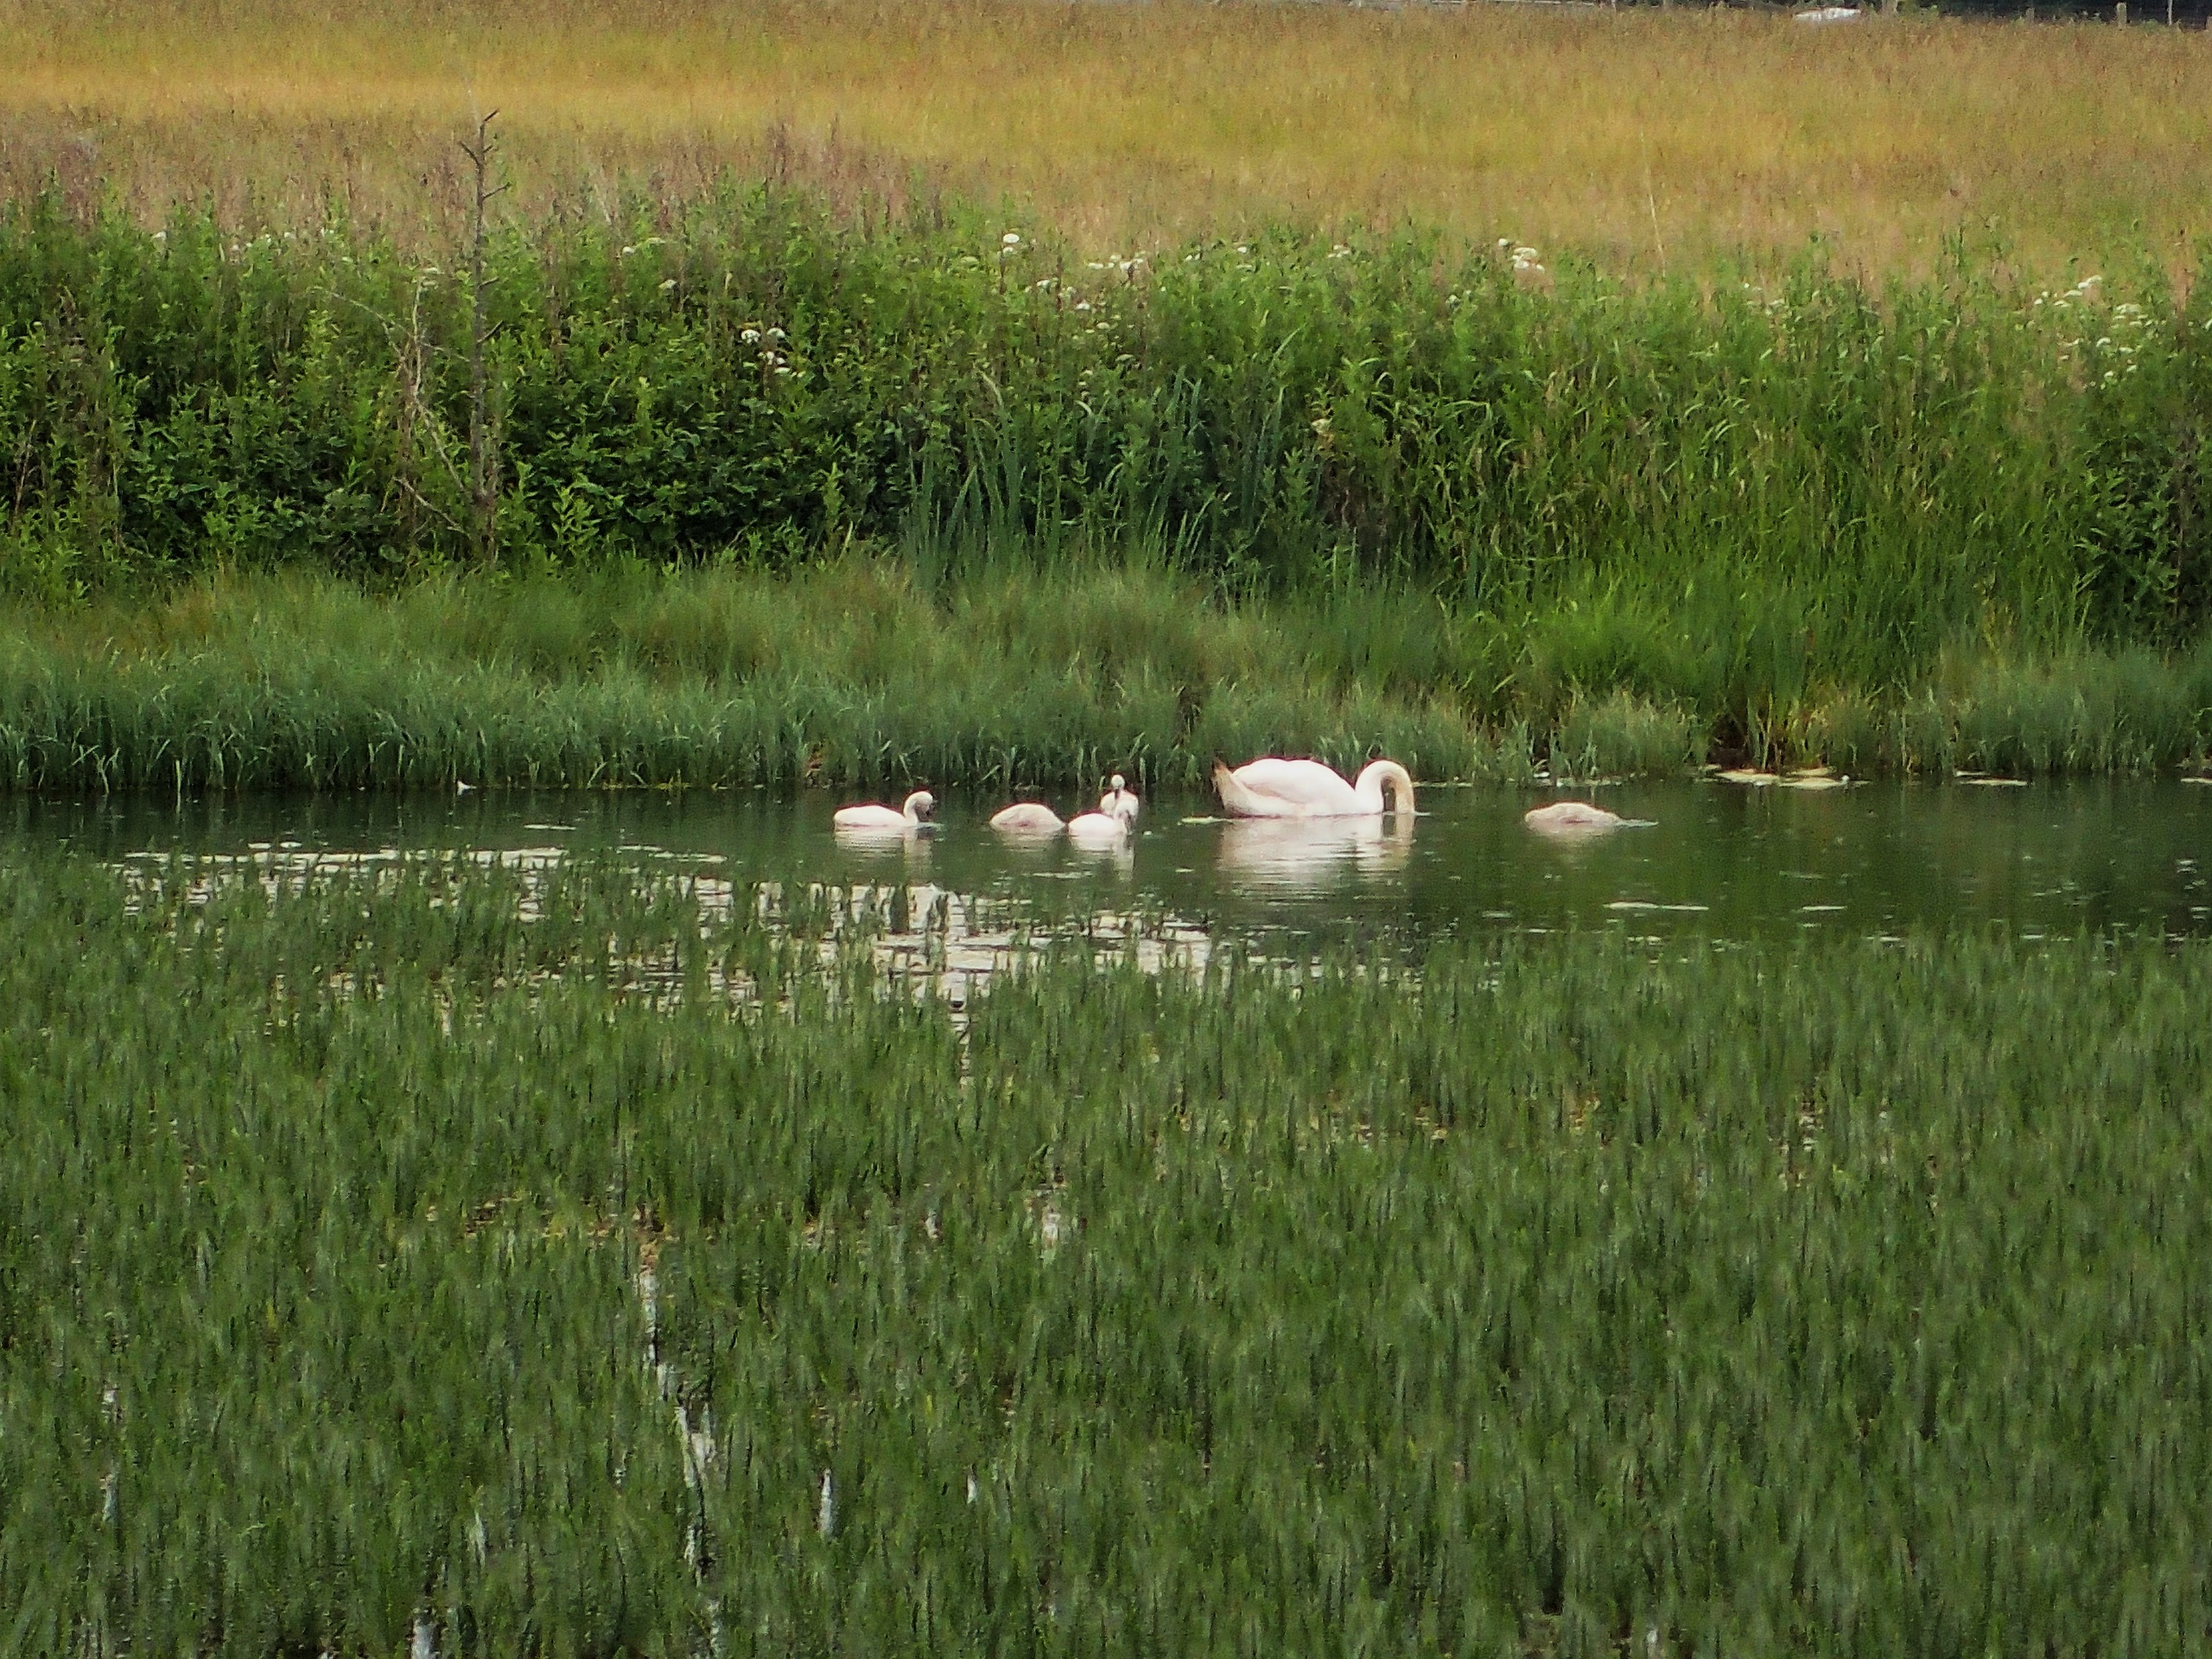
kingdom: Animalia
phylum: Chordata
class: Aves
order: Anseriformes
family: Anatidae
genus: Cygnus
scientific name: Cygnus olor
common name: Knopsvane
